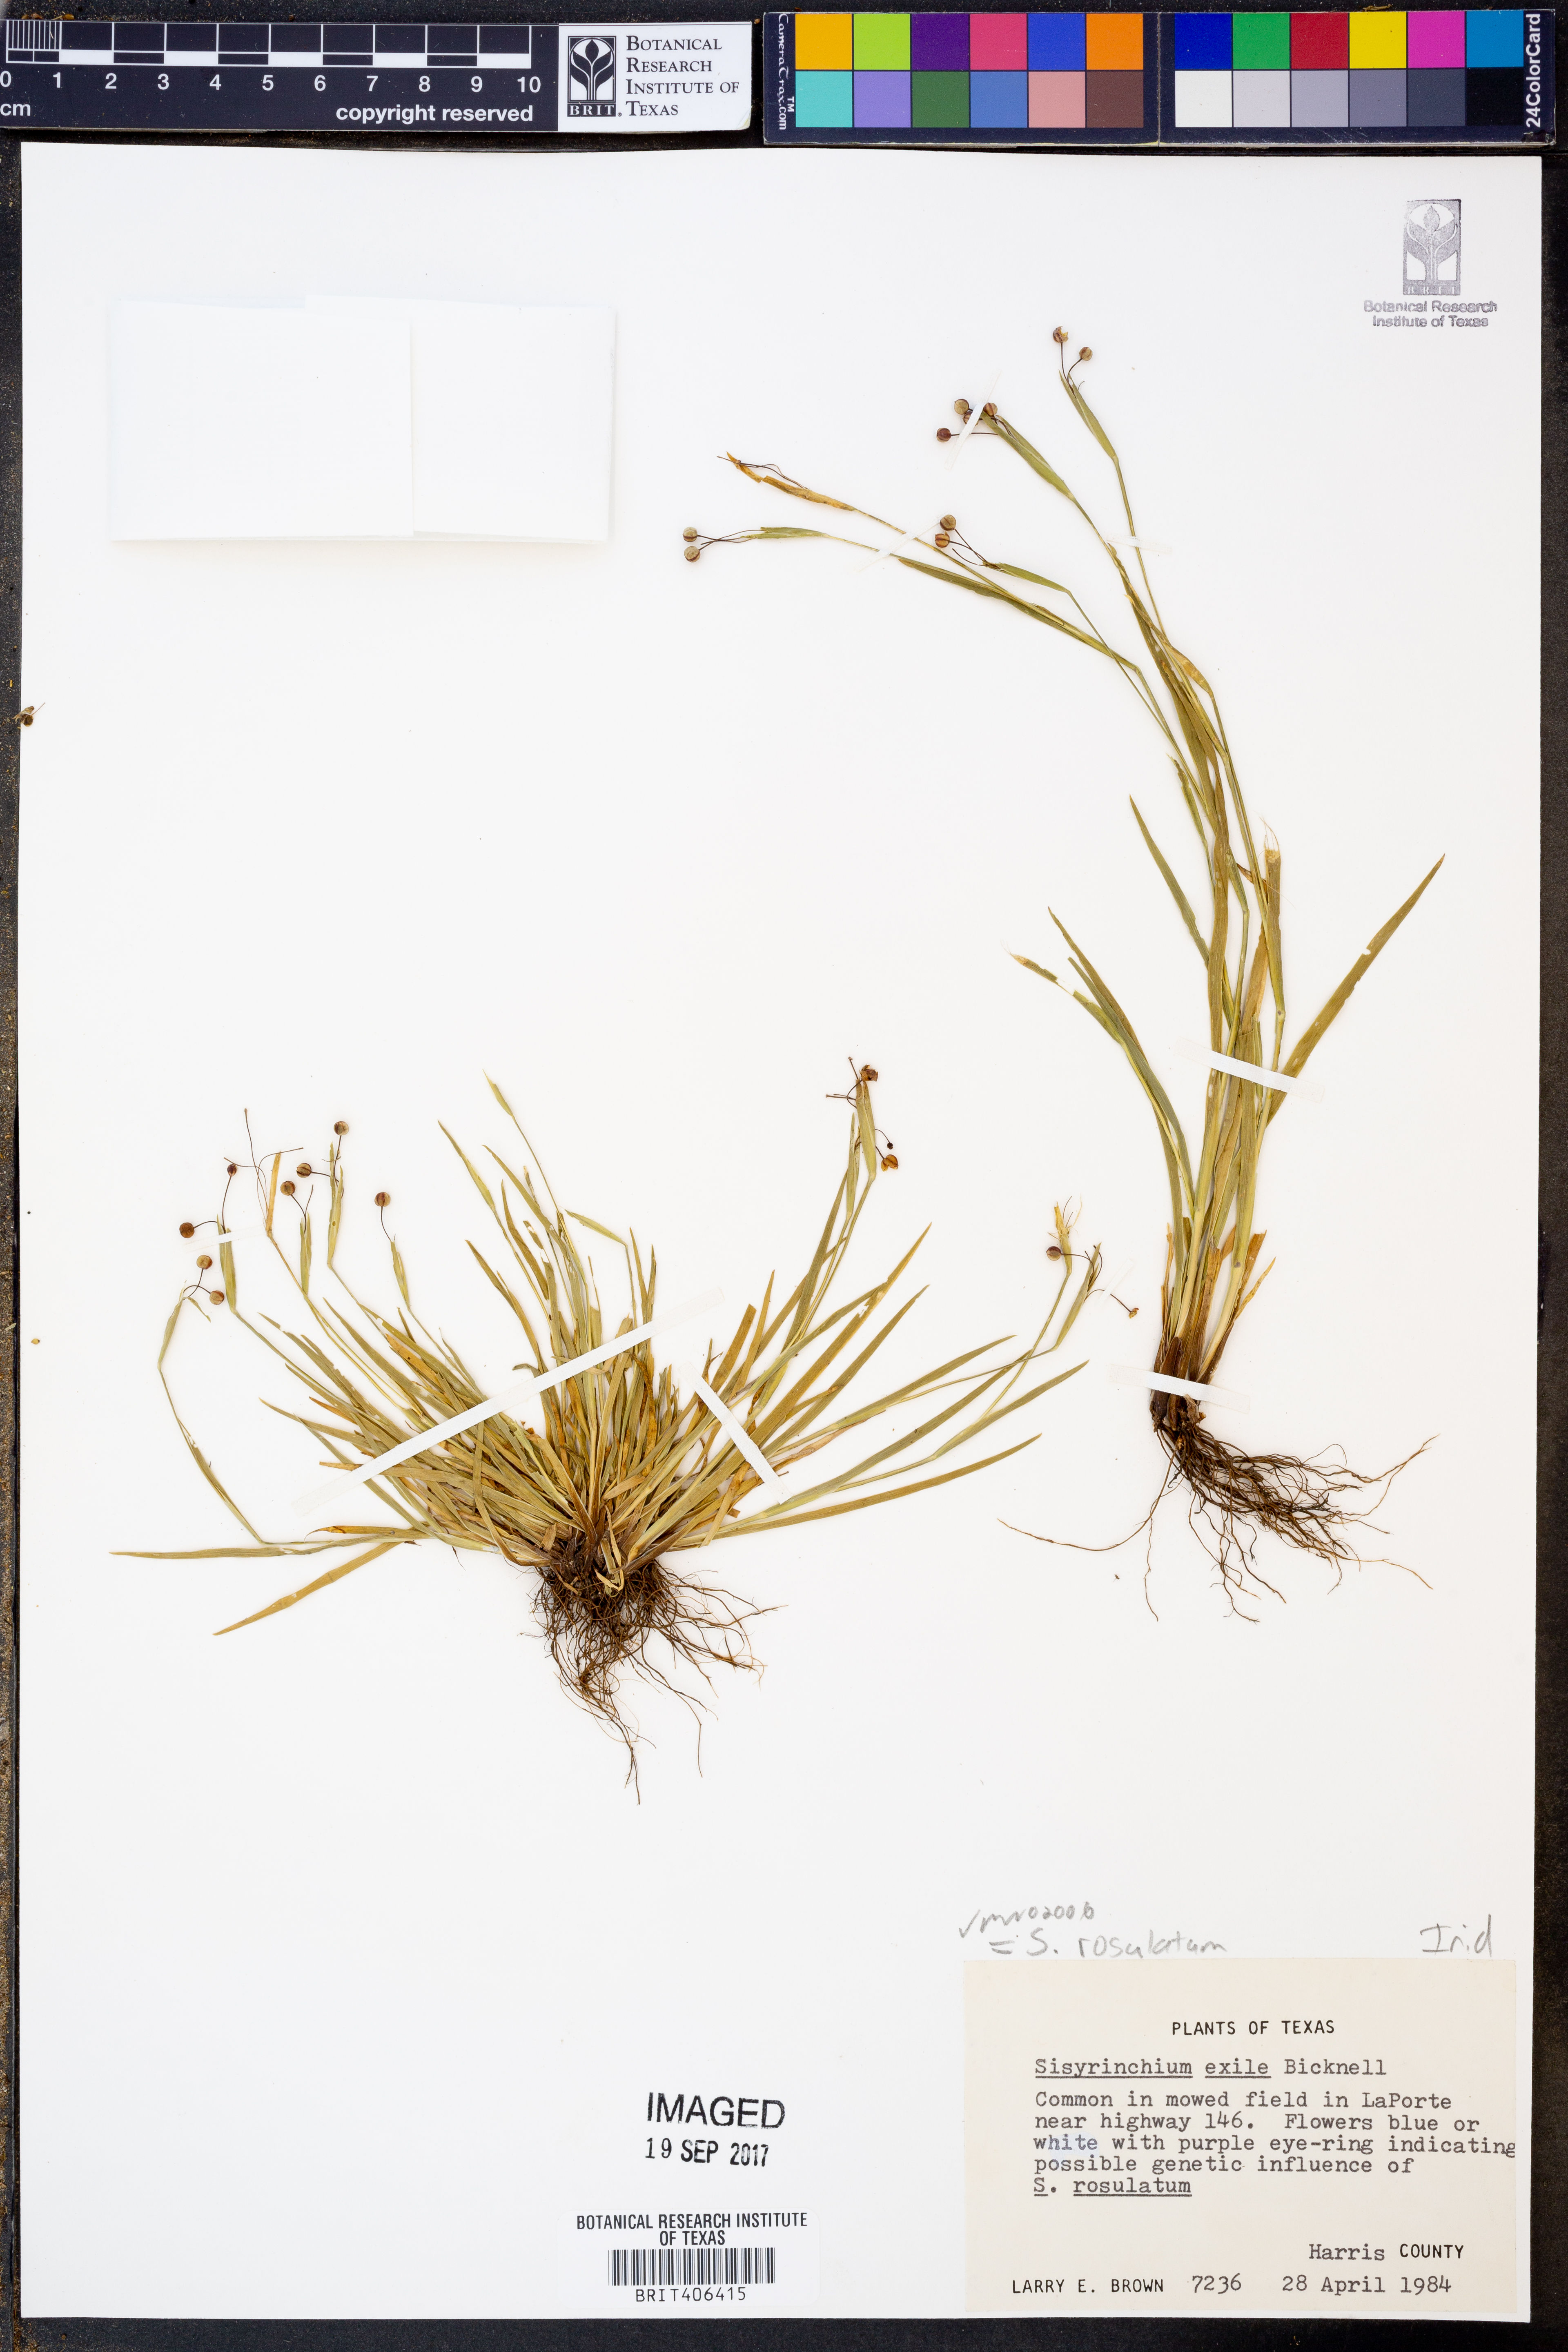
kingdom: Plantae
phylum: Tracheophyta
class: Liliopsida
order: Asparagales
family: Iridaceae
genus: Sisyrinchium
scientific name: Sisyrinchium rosulatum
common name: Annual blue-eyed grass
